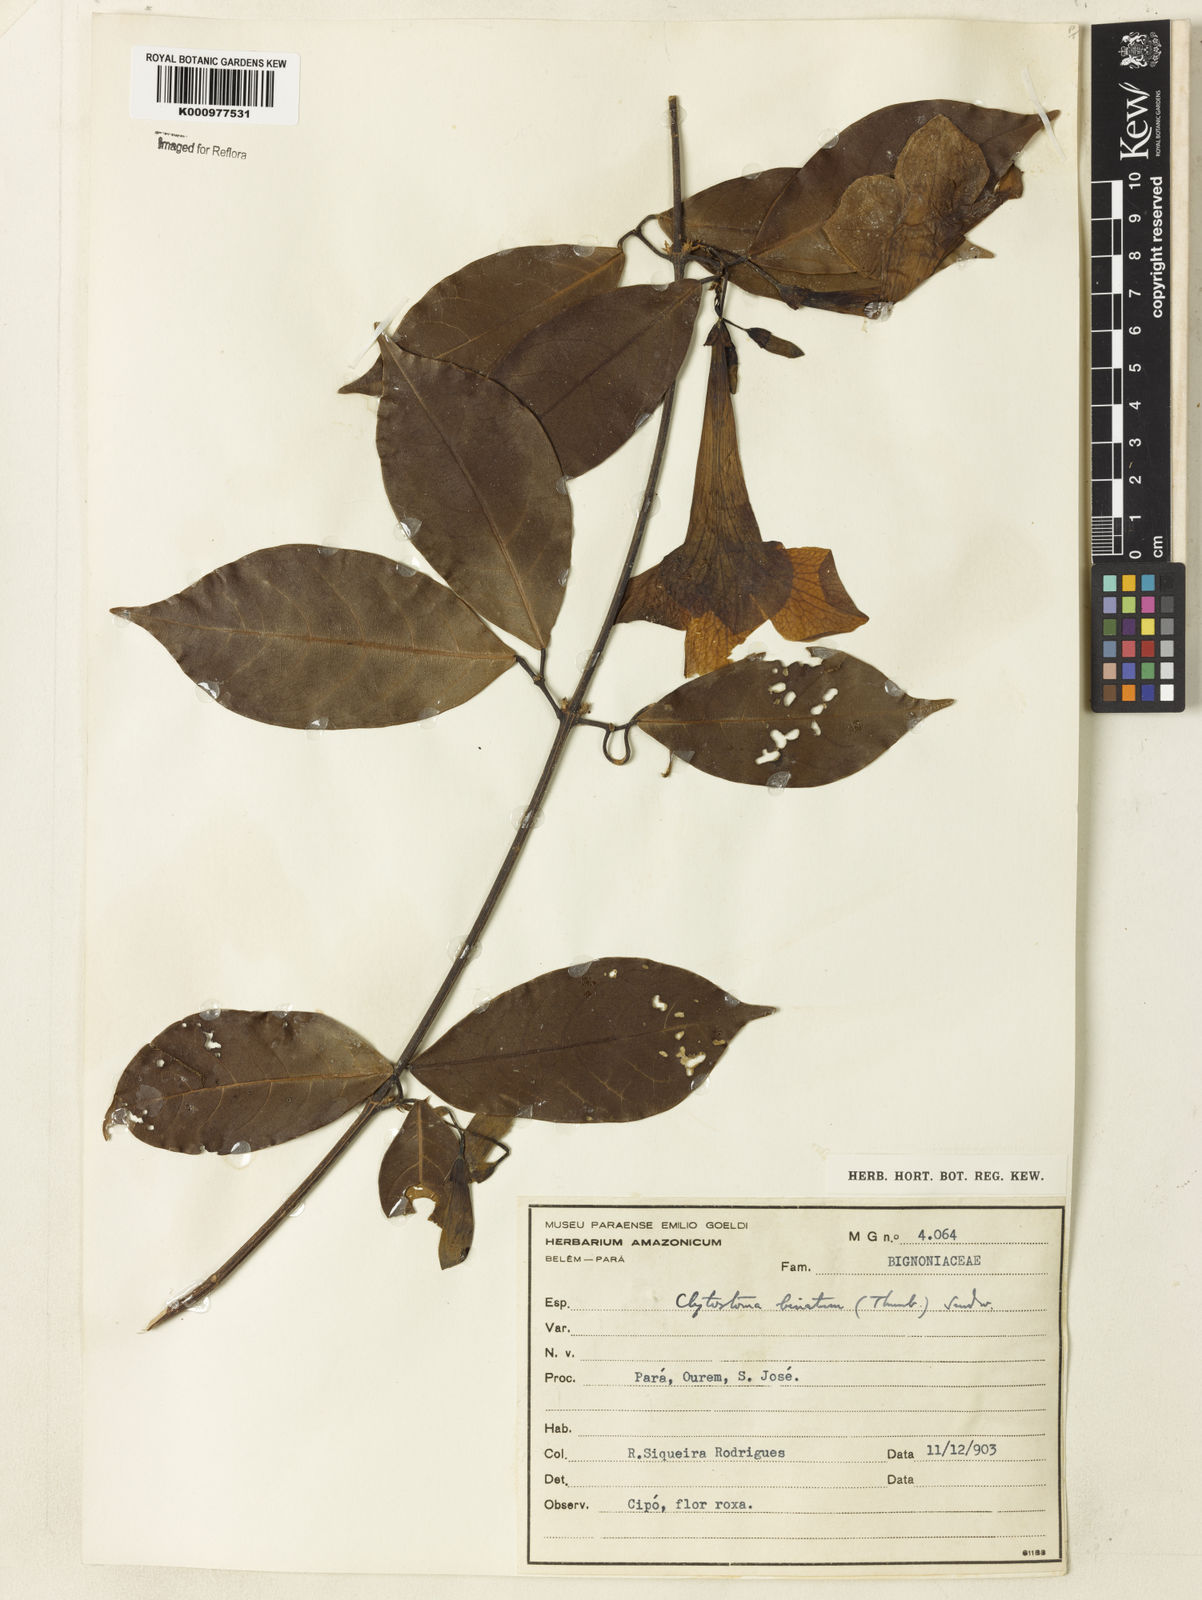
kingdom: Plantae
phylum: Tracheophyta
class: Magnoliopsida
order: Lamiales
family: Bignoniaceae
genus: Bignonia
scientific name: Bignonia binata
